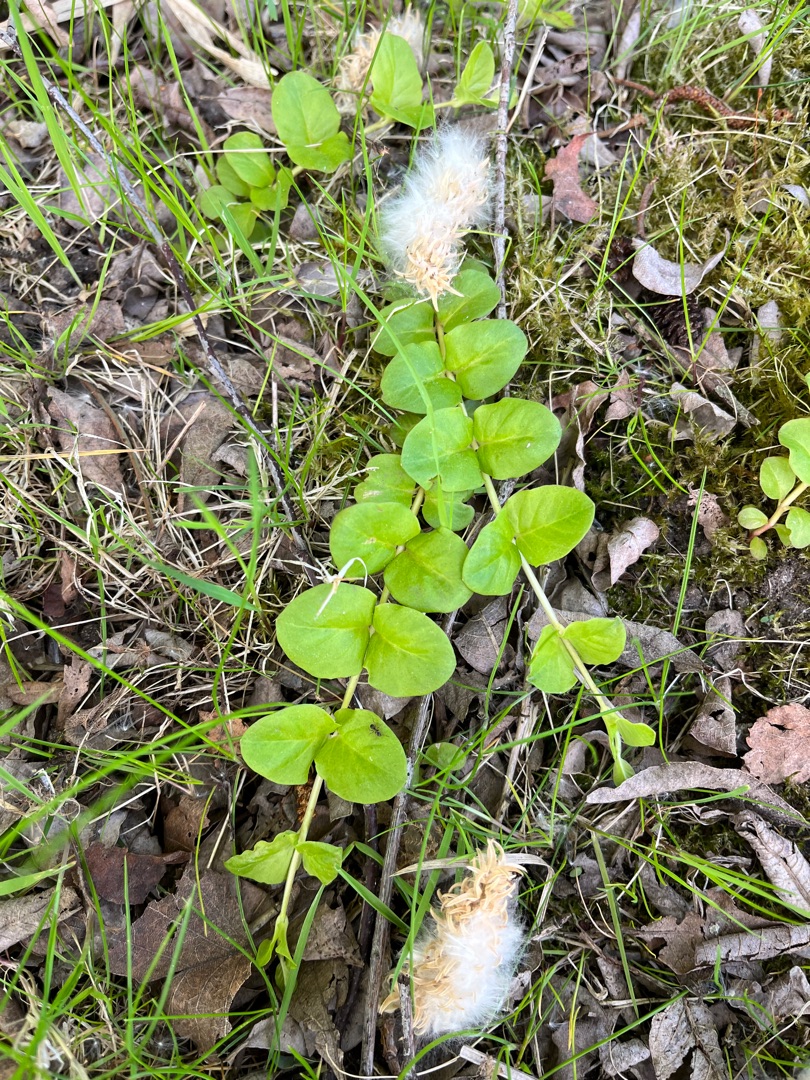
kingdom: Plantae
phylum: Tracheophyta
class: Magnoliopsida
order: Ericales
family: Primulaceae
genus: Lysimachia
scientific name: Lysimachia nummularia
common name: Pengebladet fredløs
